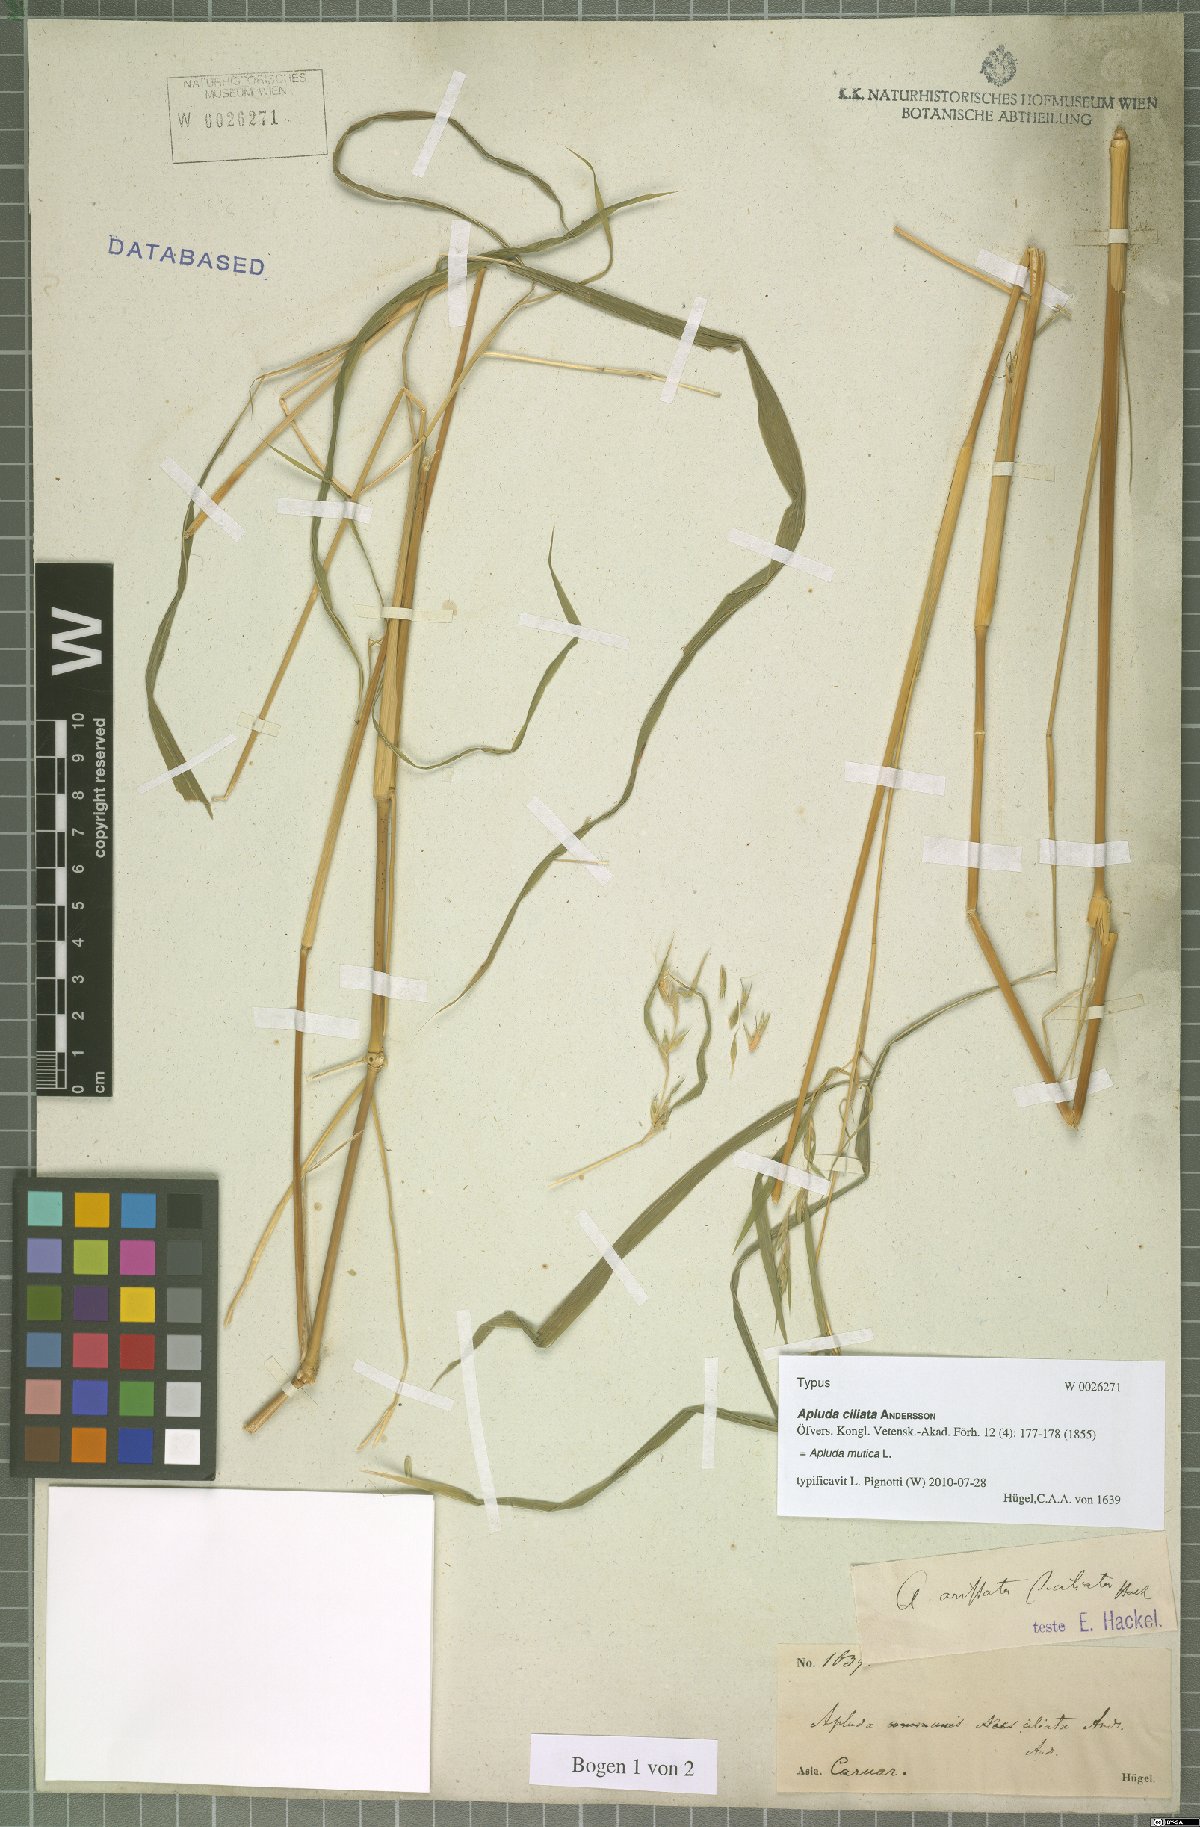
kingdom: Plantae
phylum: Tracheophyta
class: Liliopsida
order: Poales
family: Poaceae
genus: Apluda
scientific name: Apluda mutica
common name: Mauritian grass
